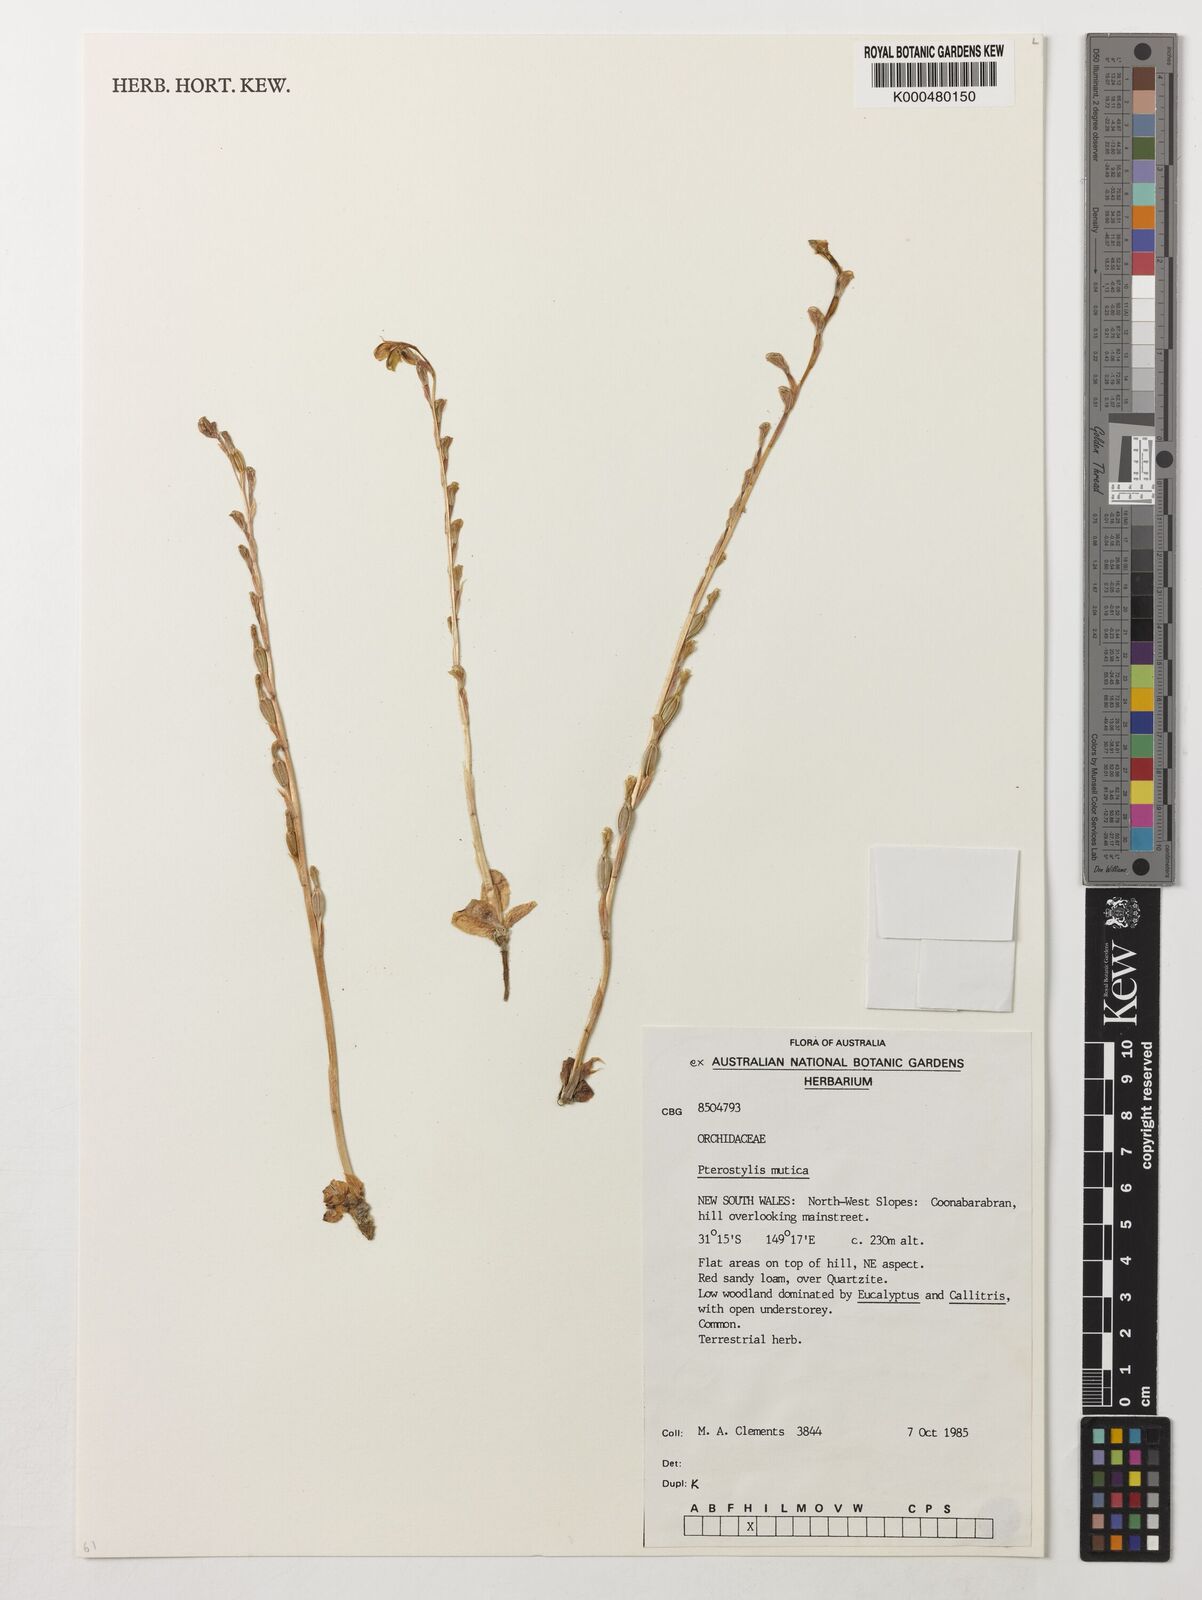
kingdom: Plantae
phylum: Tracheophyta
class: Liliopsida
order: Asparagales
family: Orchidaceae
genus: Pterostylis
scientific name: Pterostylis mutica
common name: Midget greenhood
